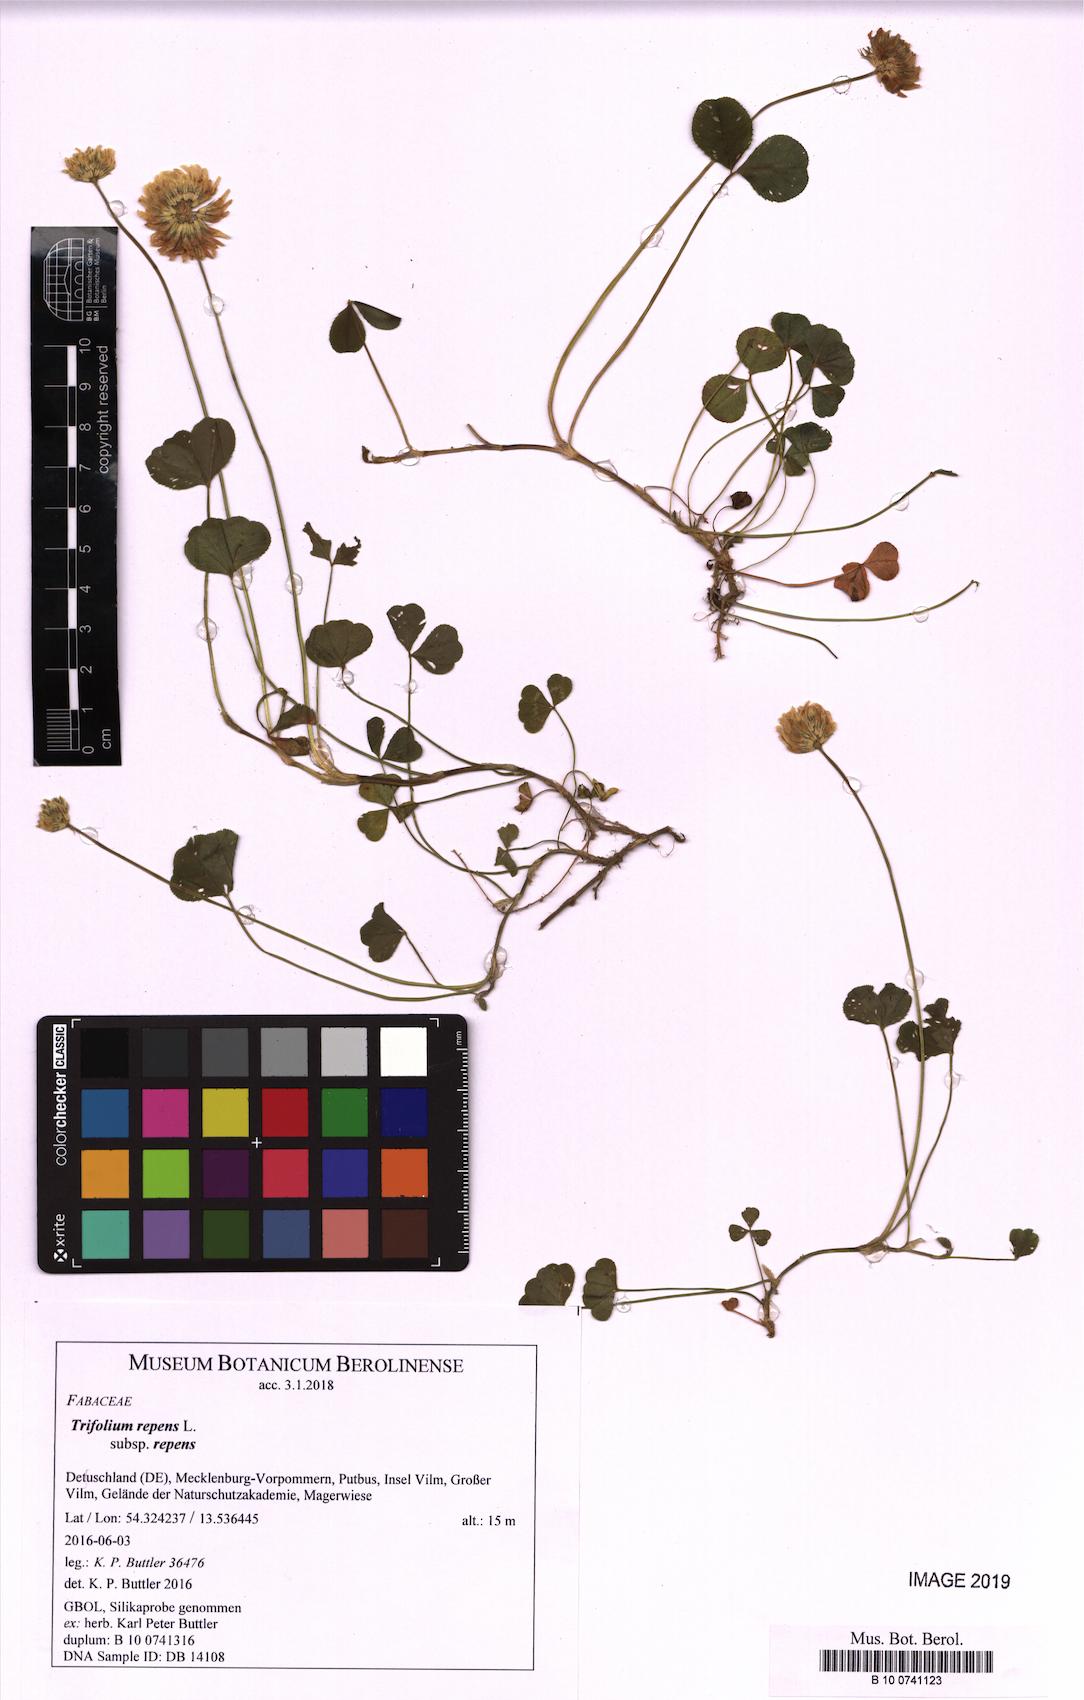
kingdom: Plantae
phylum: Tracheophyta
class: Magnoliopsida
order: Fabales
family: Fabaceae
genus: Trifolium
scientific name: Trifolium repens
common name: White clover
